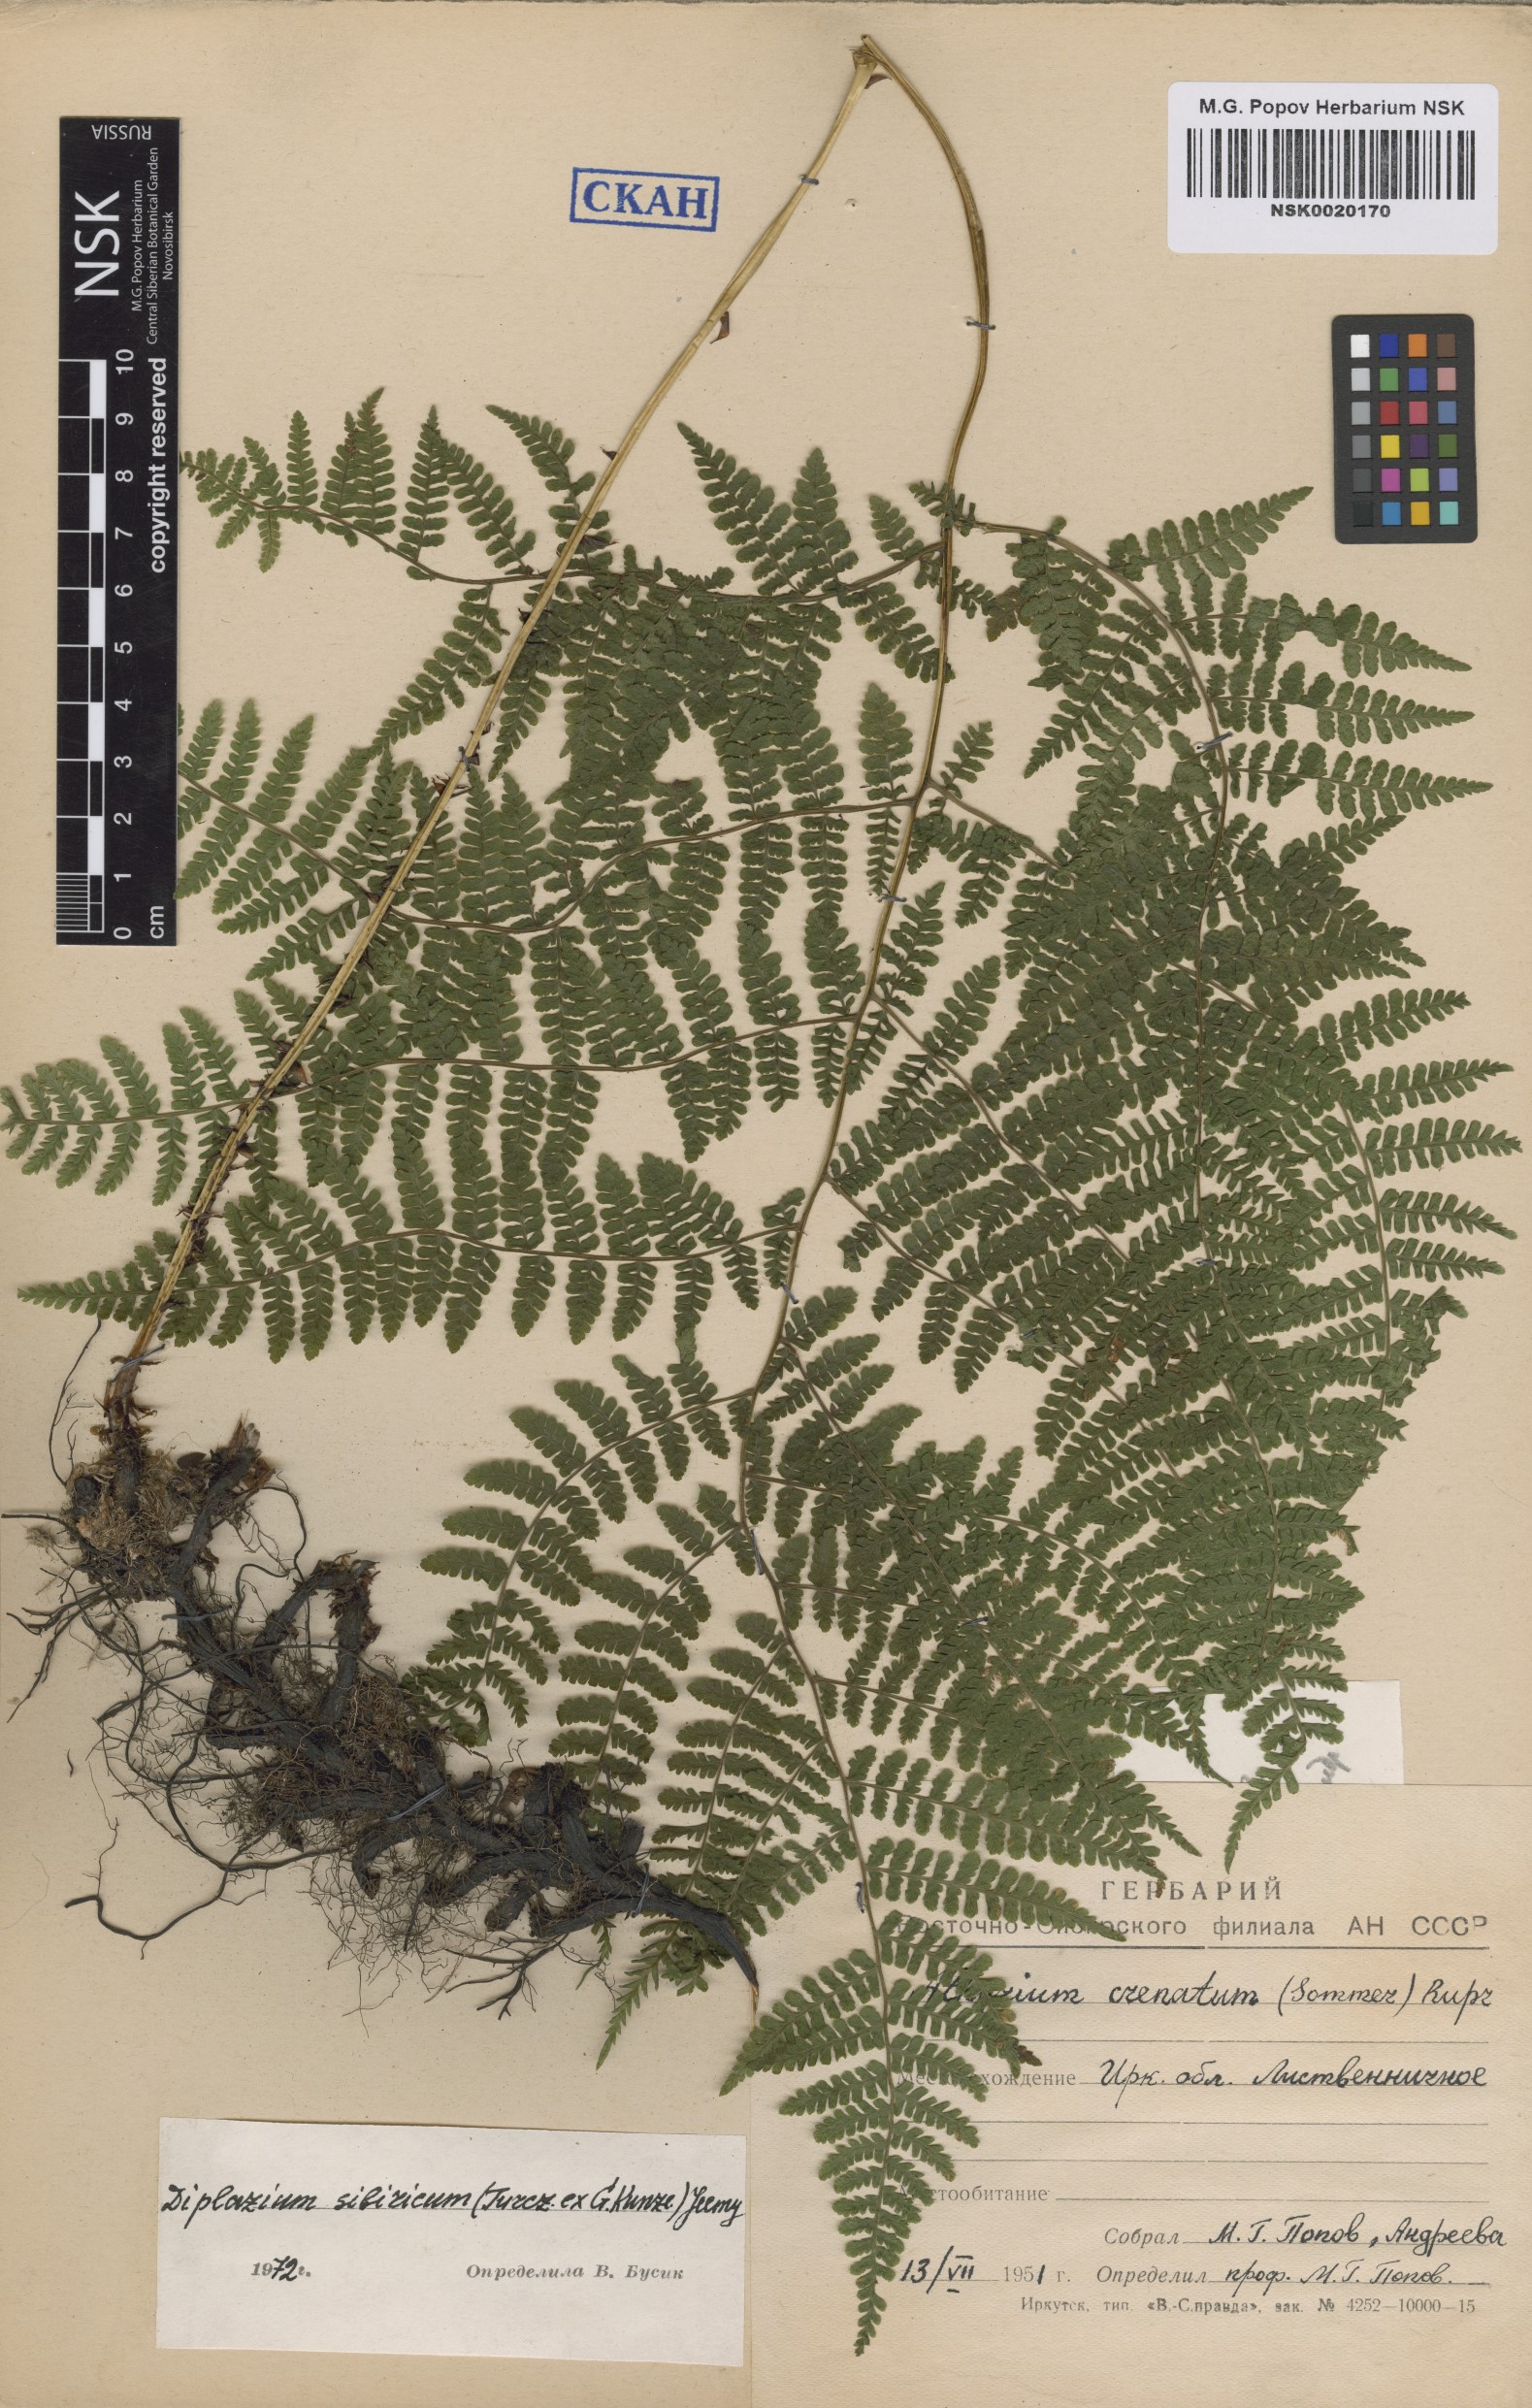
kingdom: Plantae
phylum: Tracheophyta
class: Polypodiopsida
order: Polypodiales
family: Athyriaceae
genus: Diplazium
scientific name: Diplazium sibiricum
